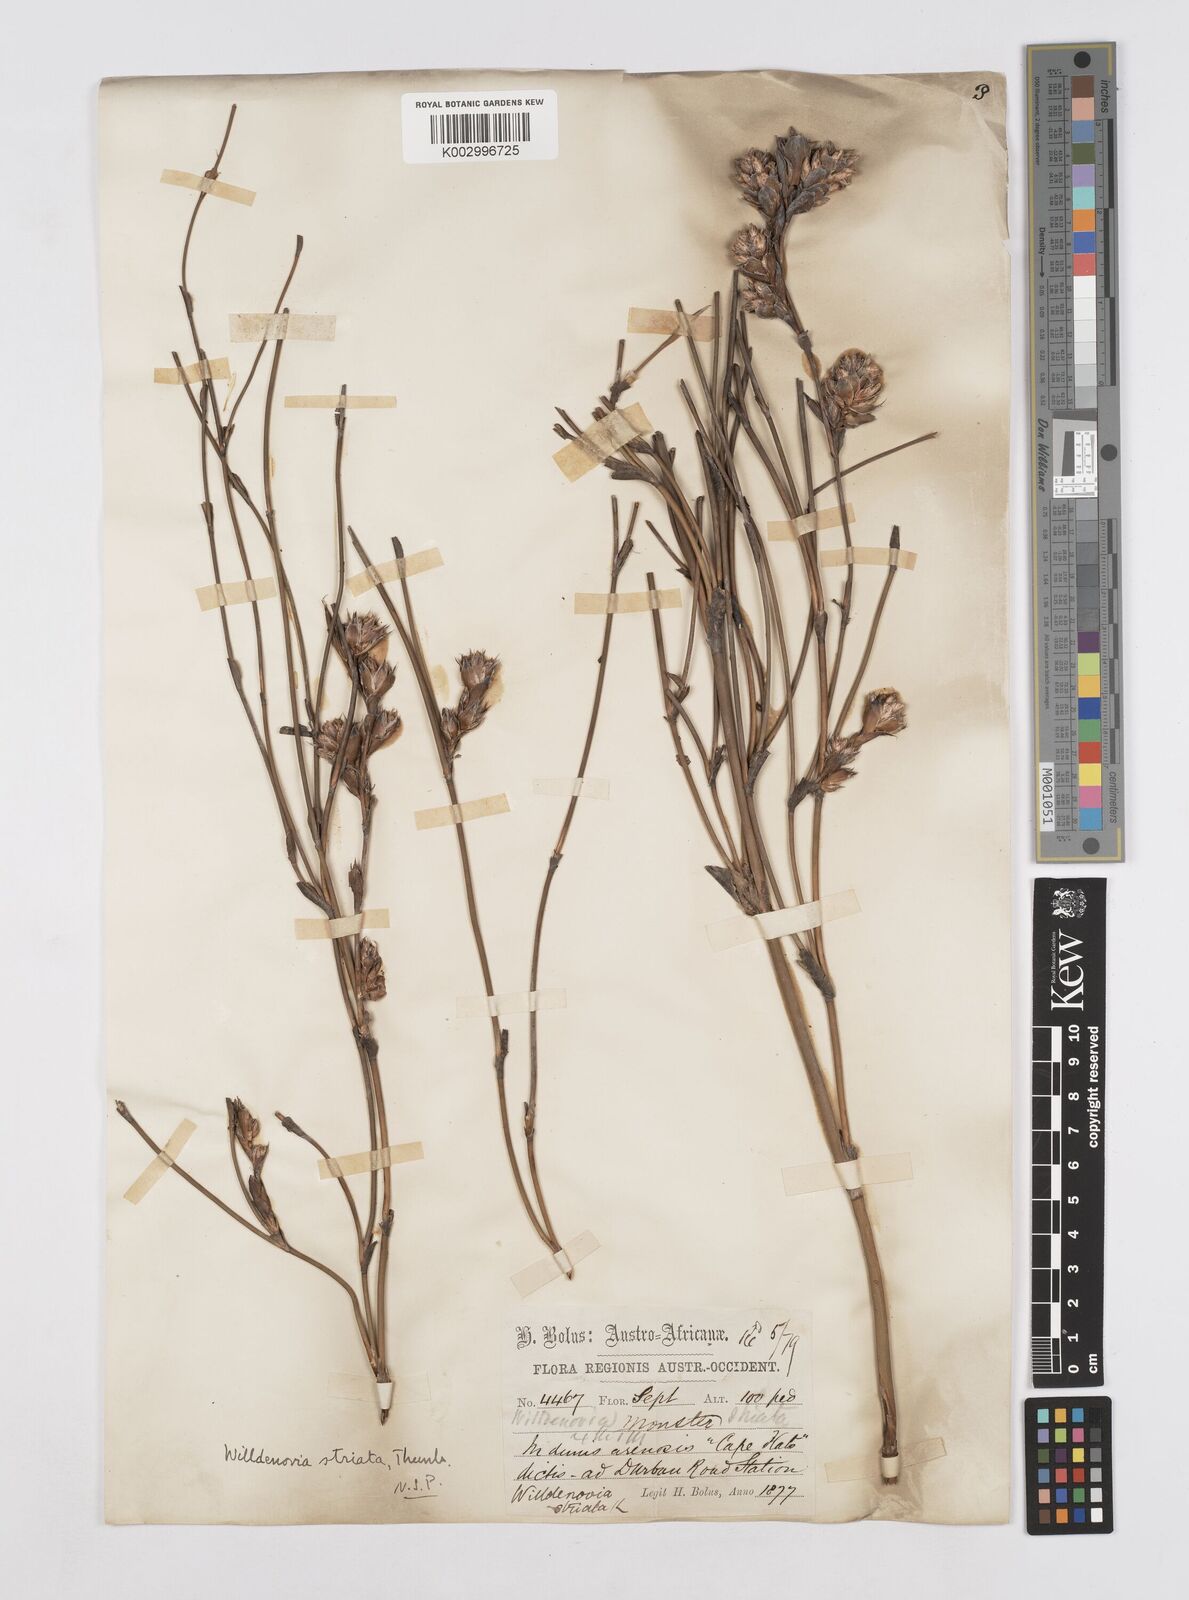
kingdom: Plantae
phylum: Tracheophyta
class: Liliopsida
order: Poales
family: Restionaceae
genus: Willdenowia
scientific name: Willdenowia incurvata
